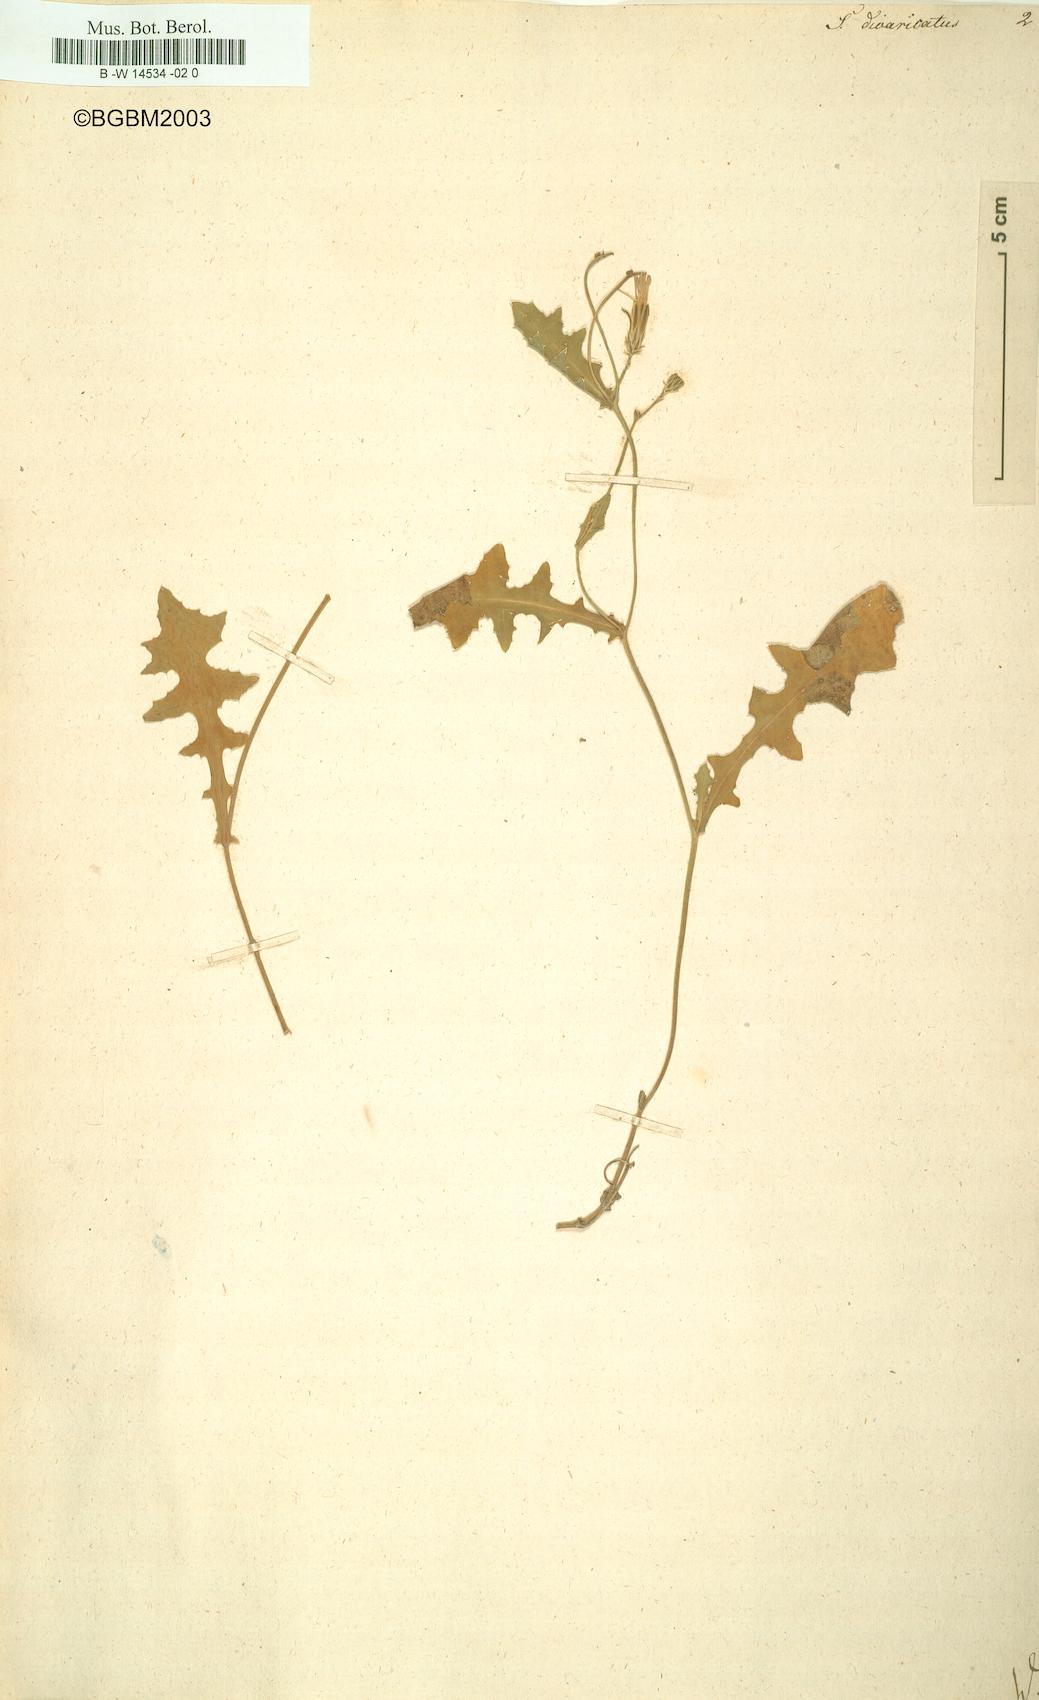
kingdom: Plantae
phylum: Tracheophyta
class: Magnoliopsida
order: Asterales
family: Asteraceae
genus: Sonchus
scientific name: Sonchus divaricatus
